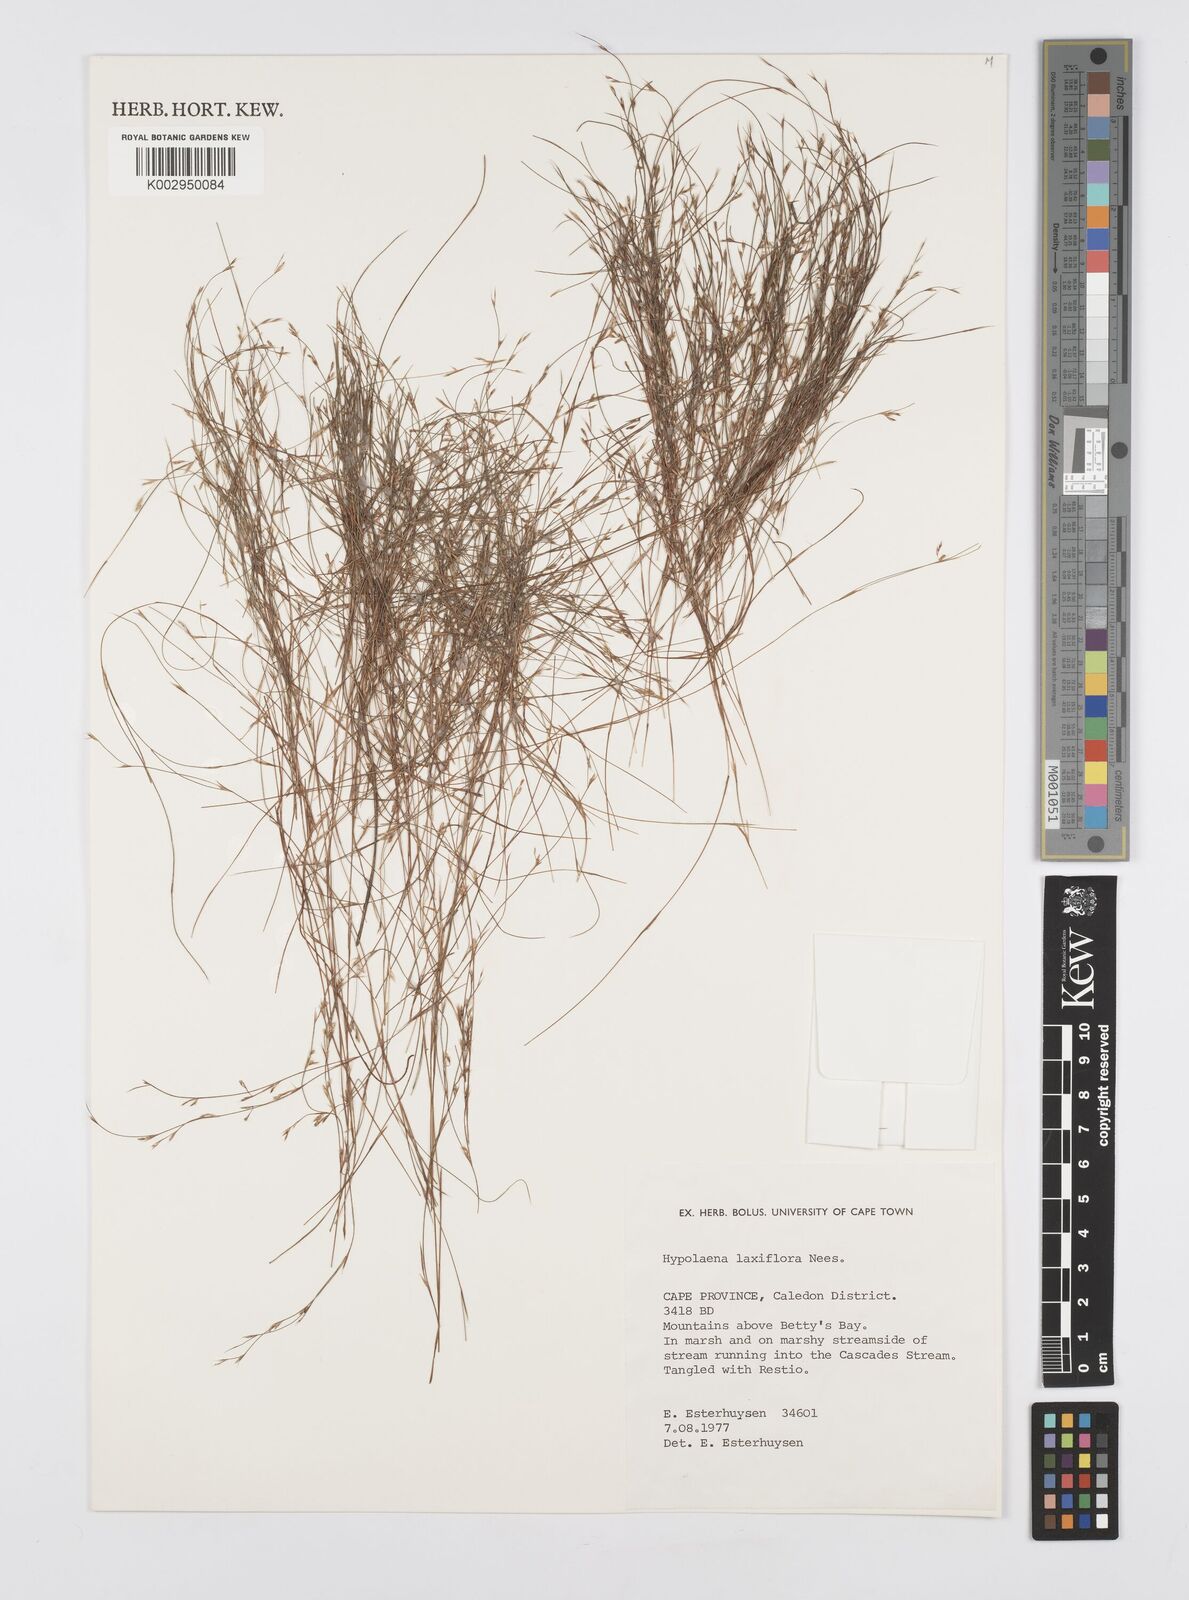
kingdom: Plantae
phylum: Tracheophyta
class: Liliopsida
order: Poales
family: Restionaceae
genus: Anthochortus
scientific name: Anthochortus laxiflorus
